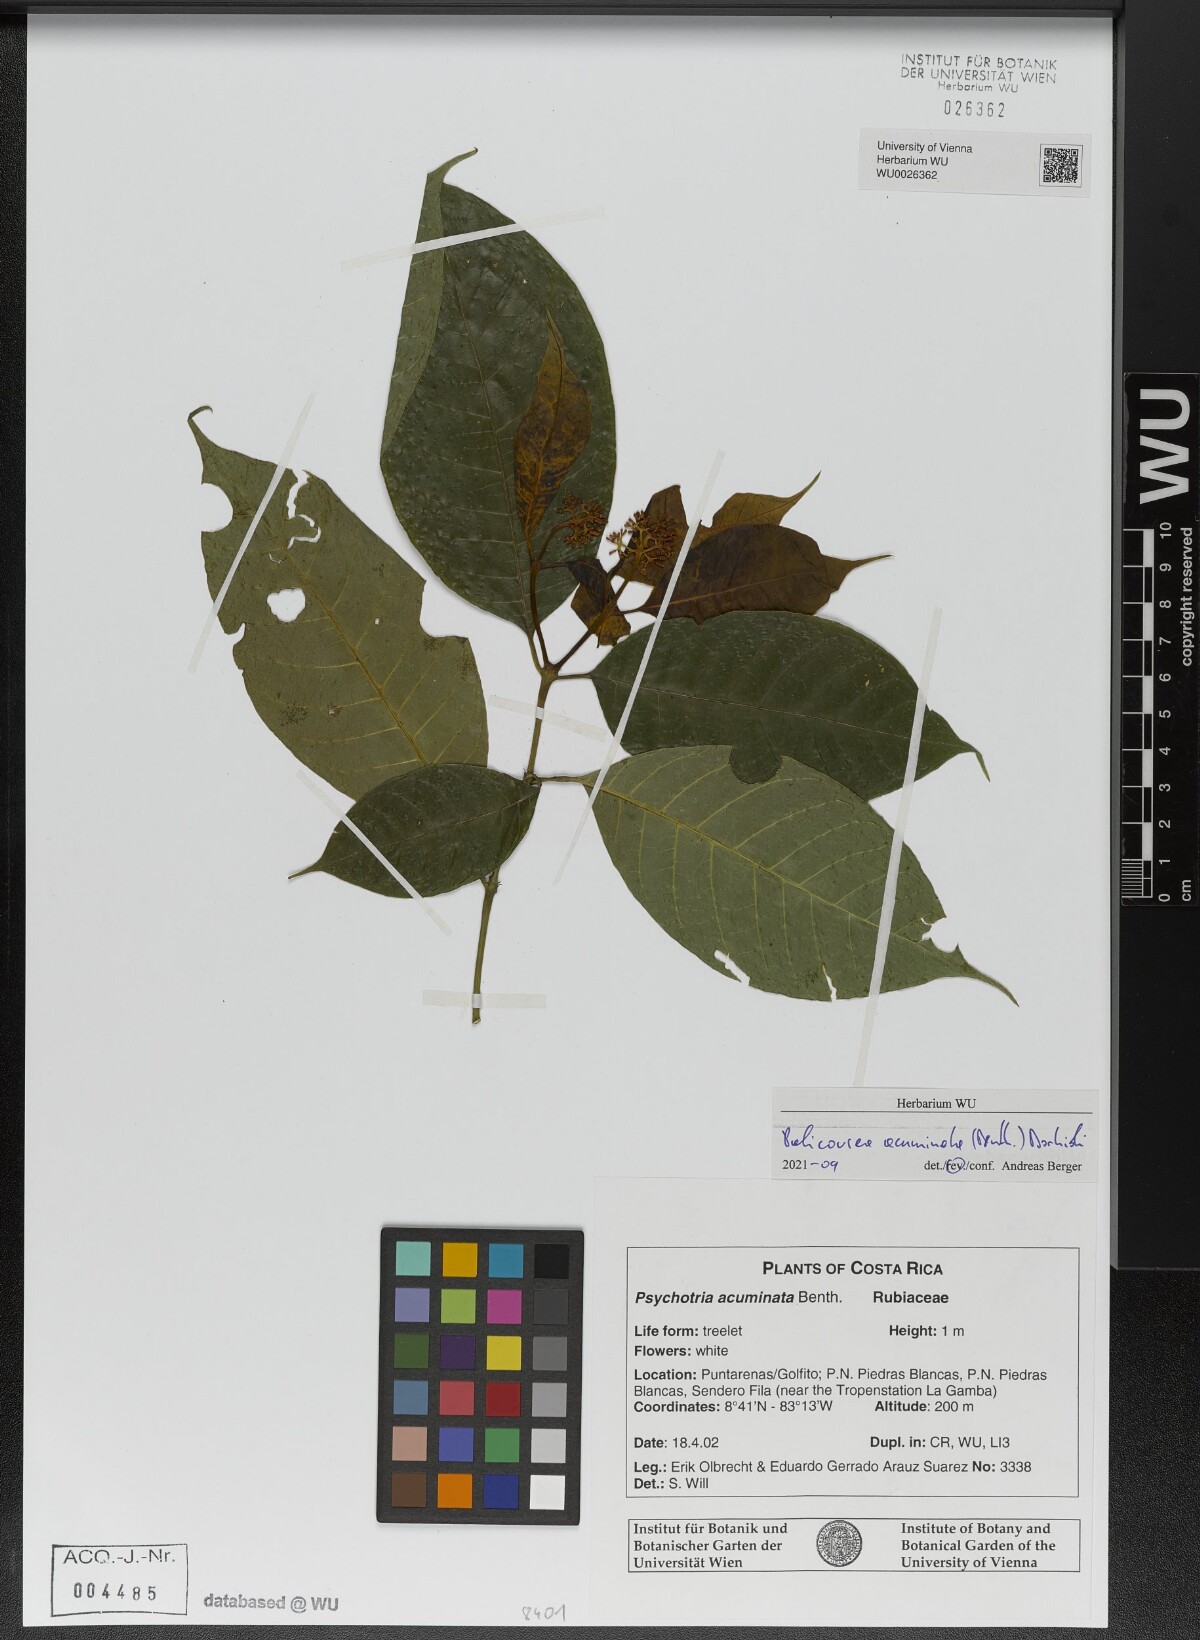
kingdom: Plantae
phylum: Tracheophyta
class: Magnoliopsida
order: Gentianales
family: Rubiaceae
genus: Palicourea
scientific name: Palicourea acuminata
